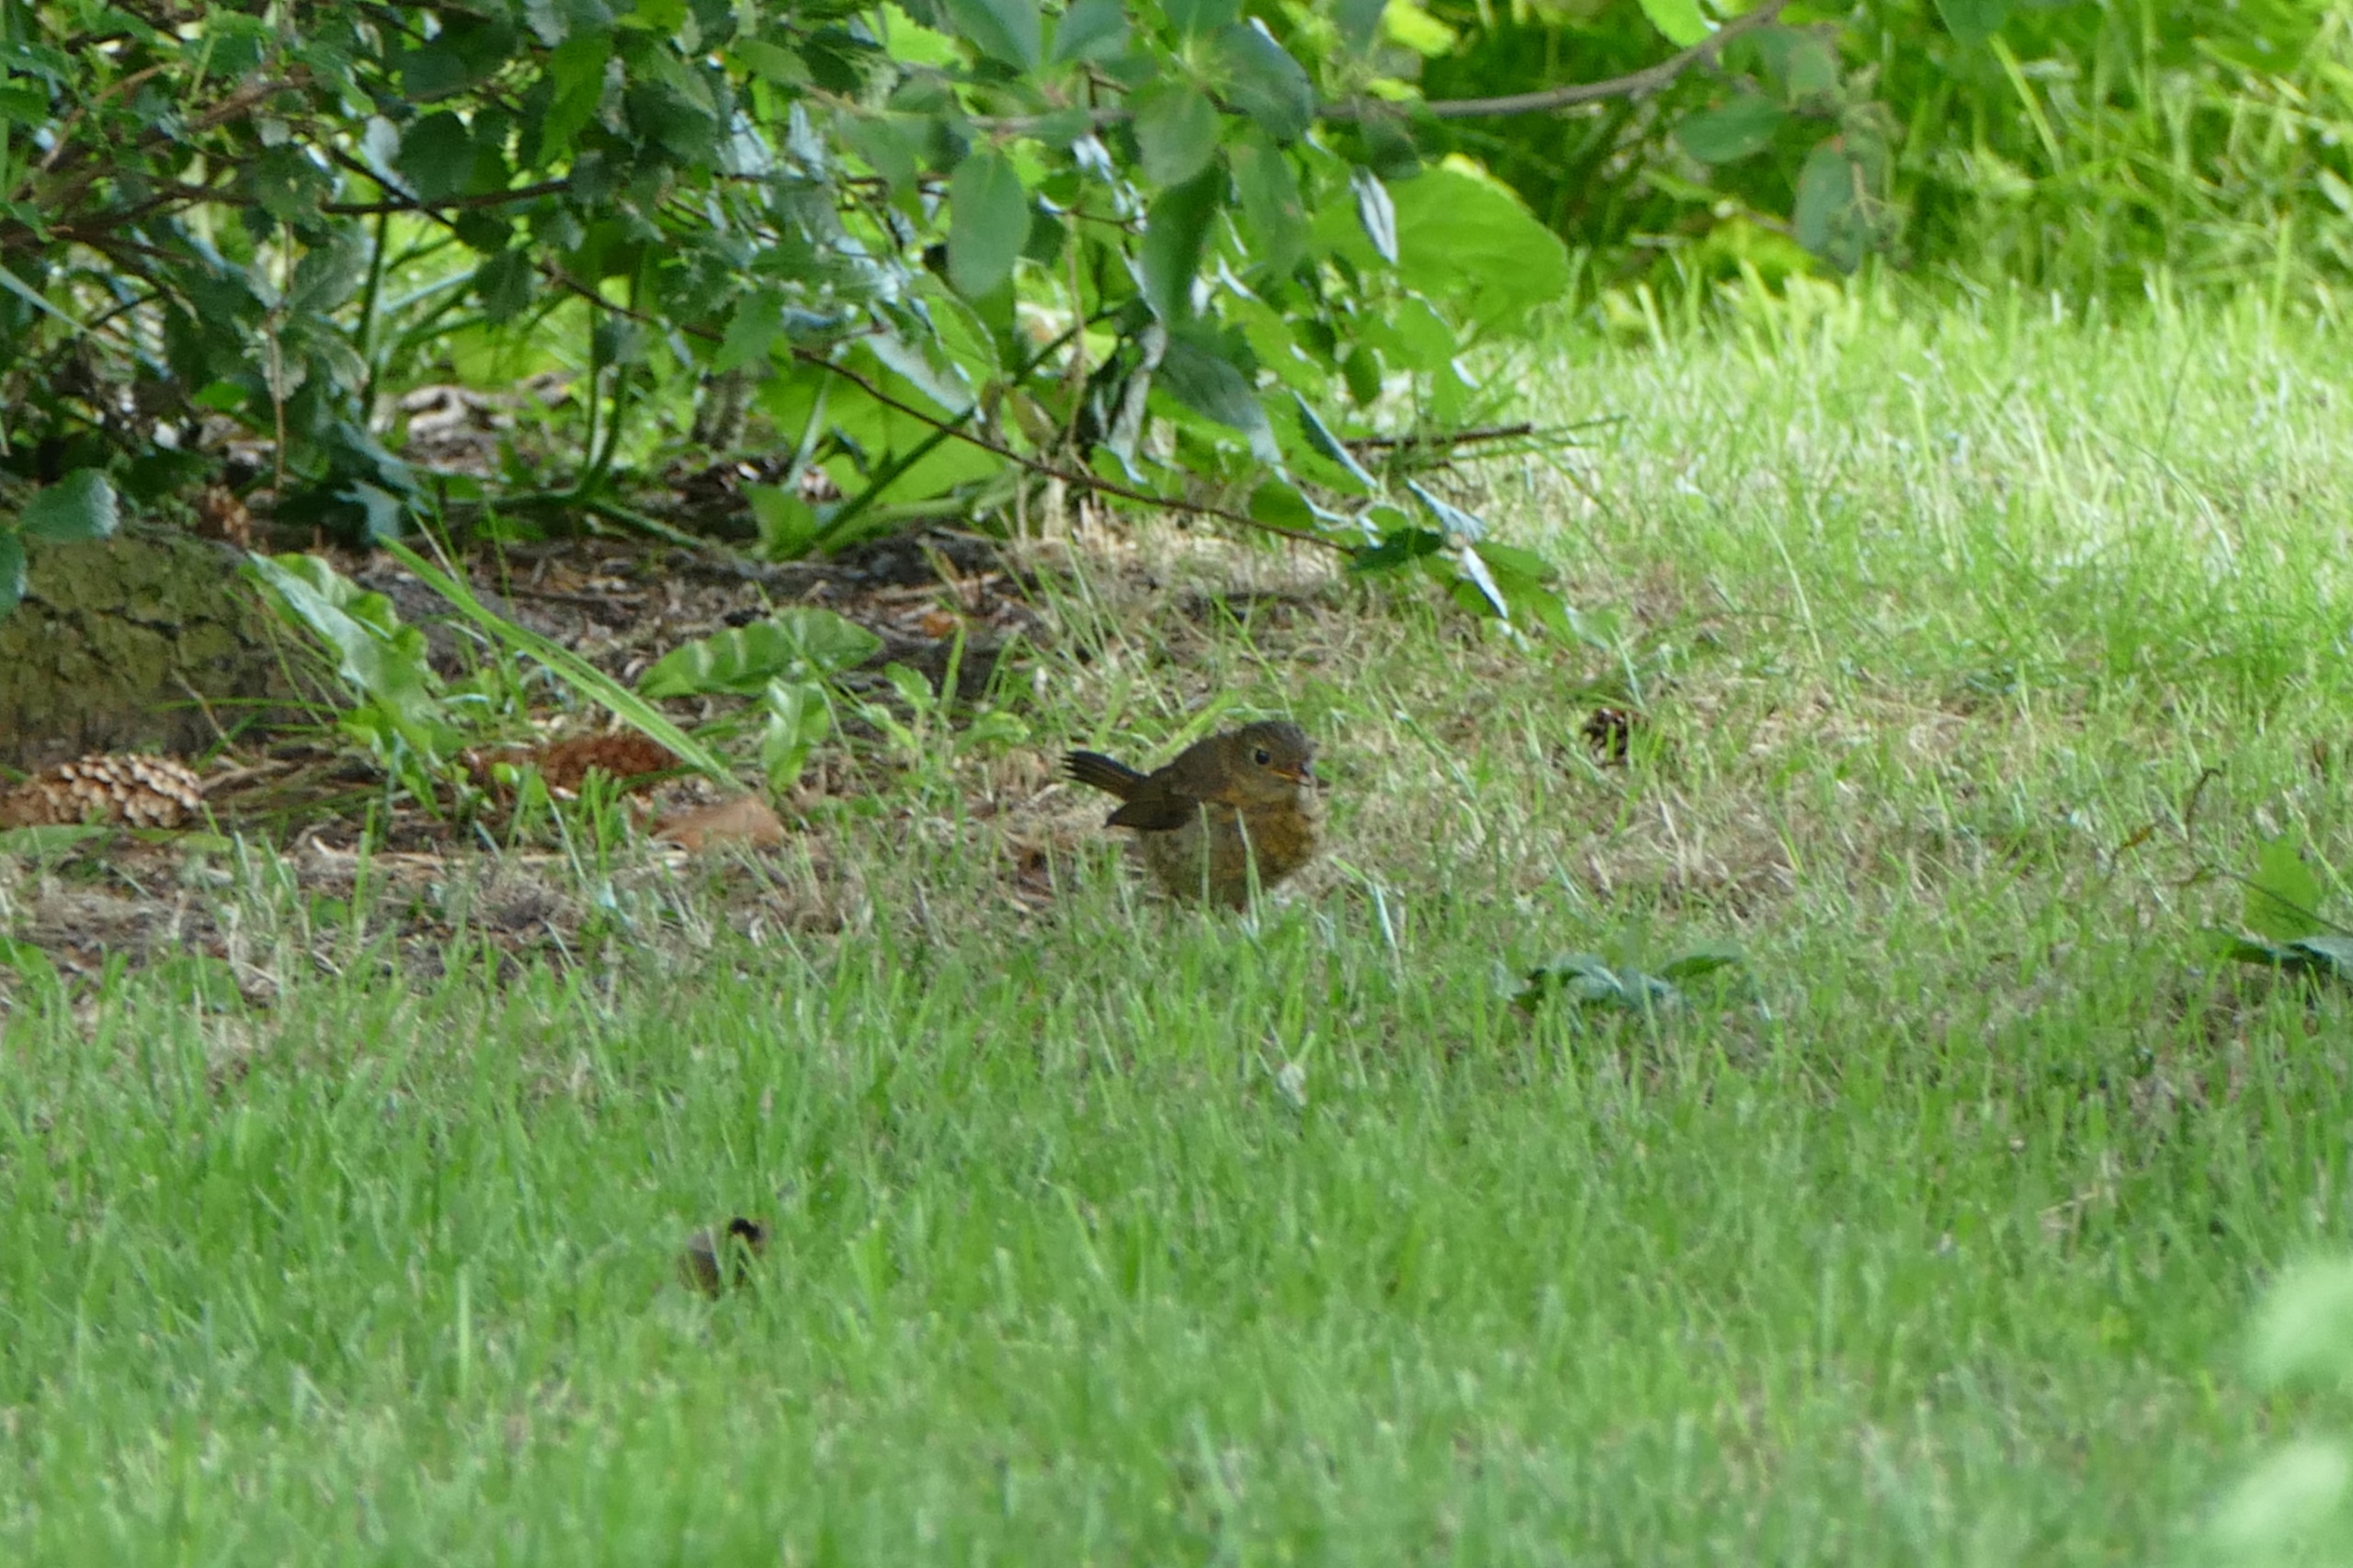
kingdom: Animalia
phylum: Chordata
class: Aves
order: Passeriformes
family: Muscicapidae
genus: Erithacus
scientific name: Erithacus rubecula
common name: Rødhals/rødkælk
